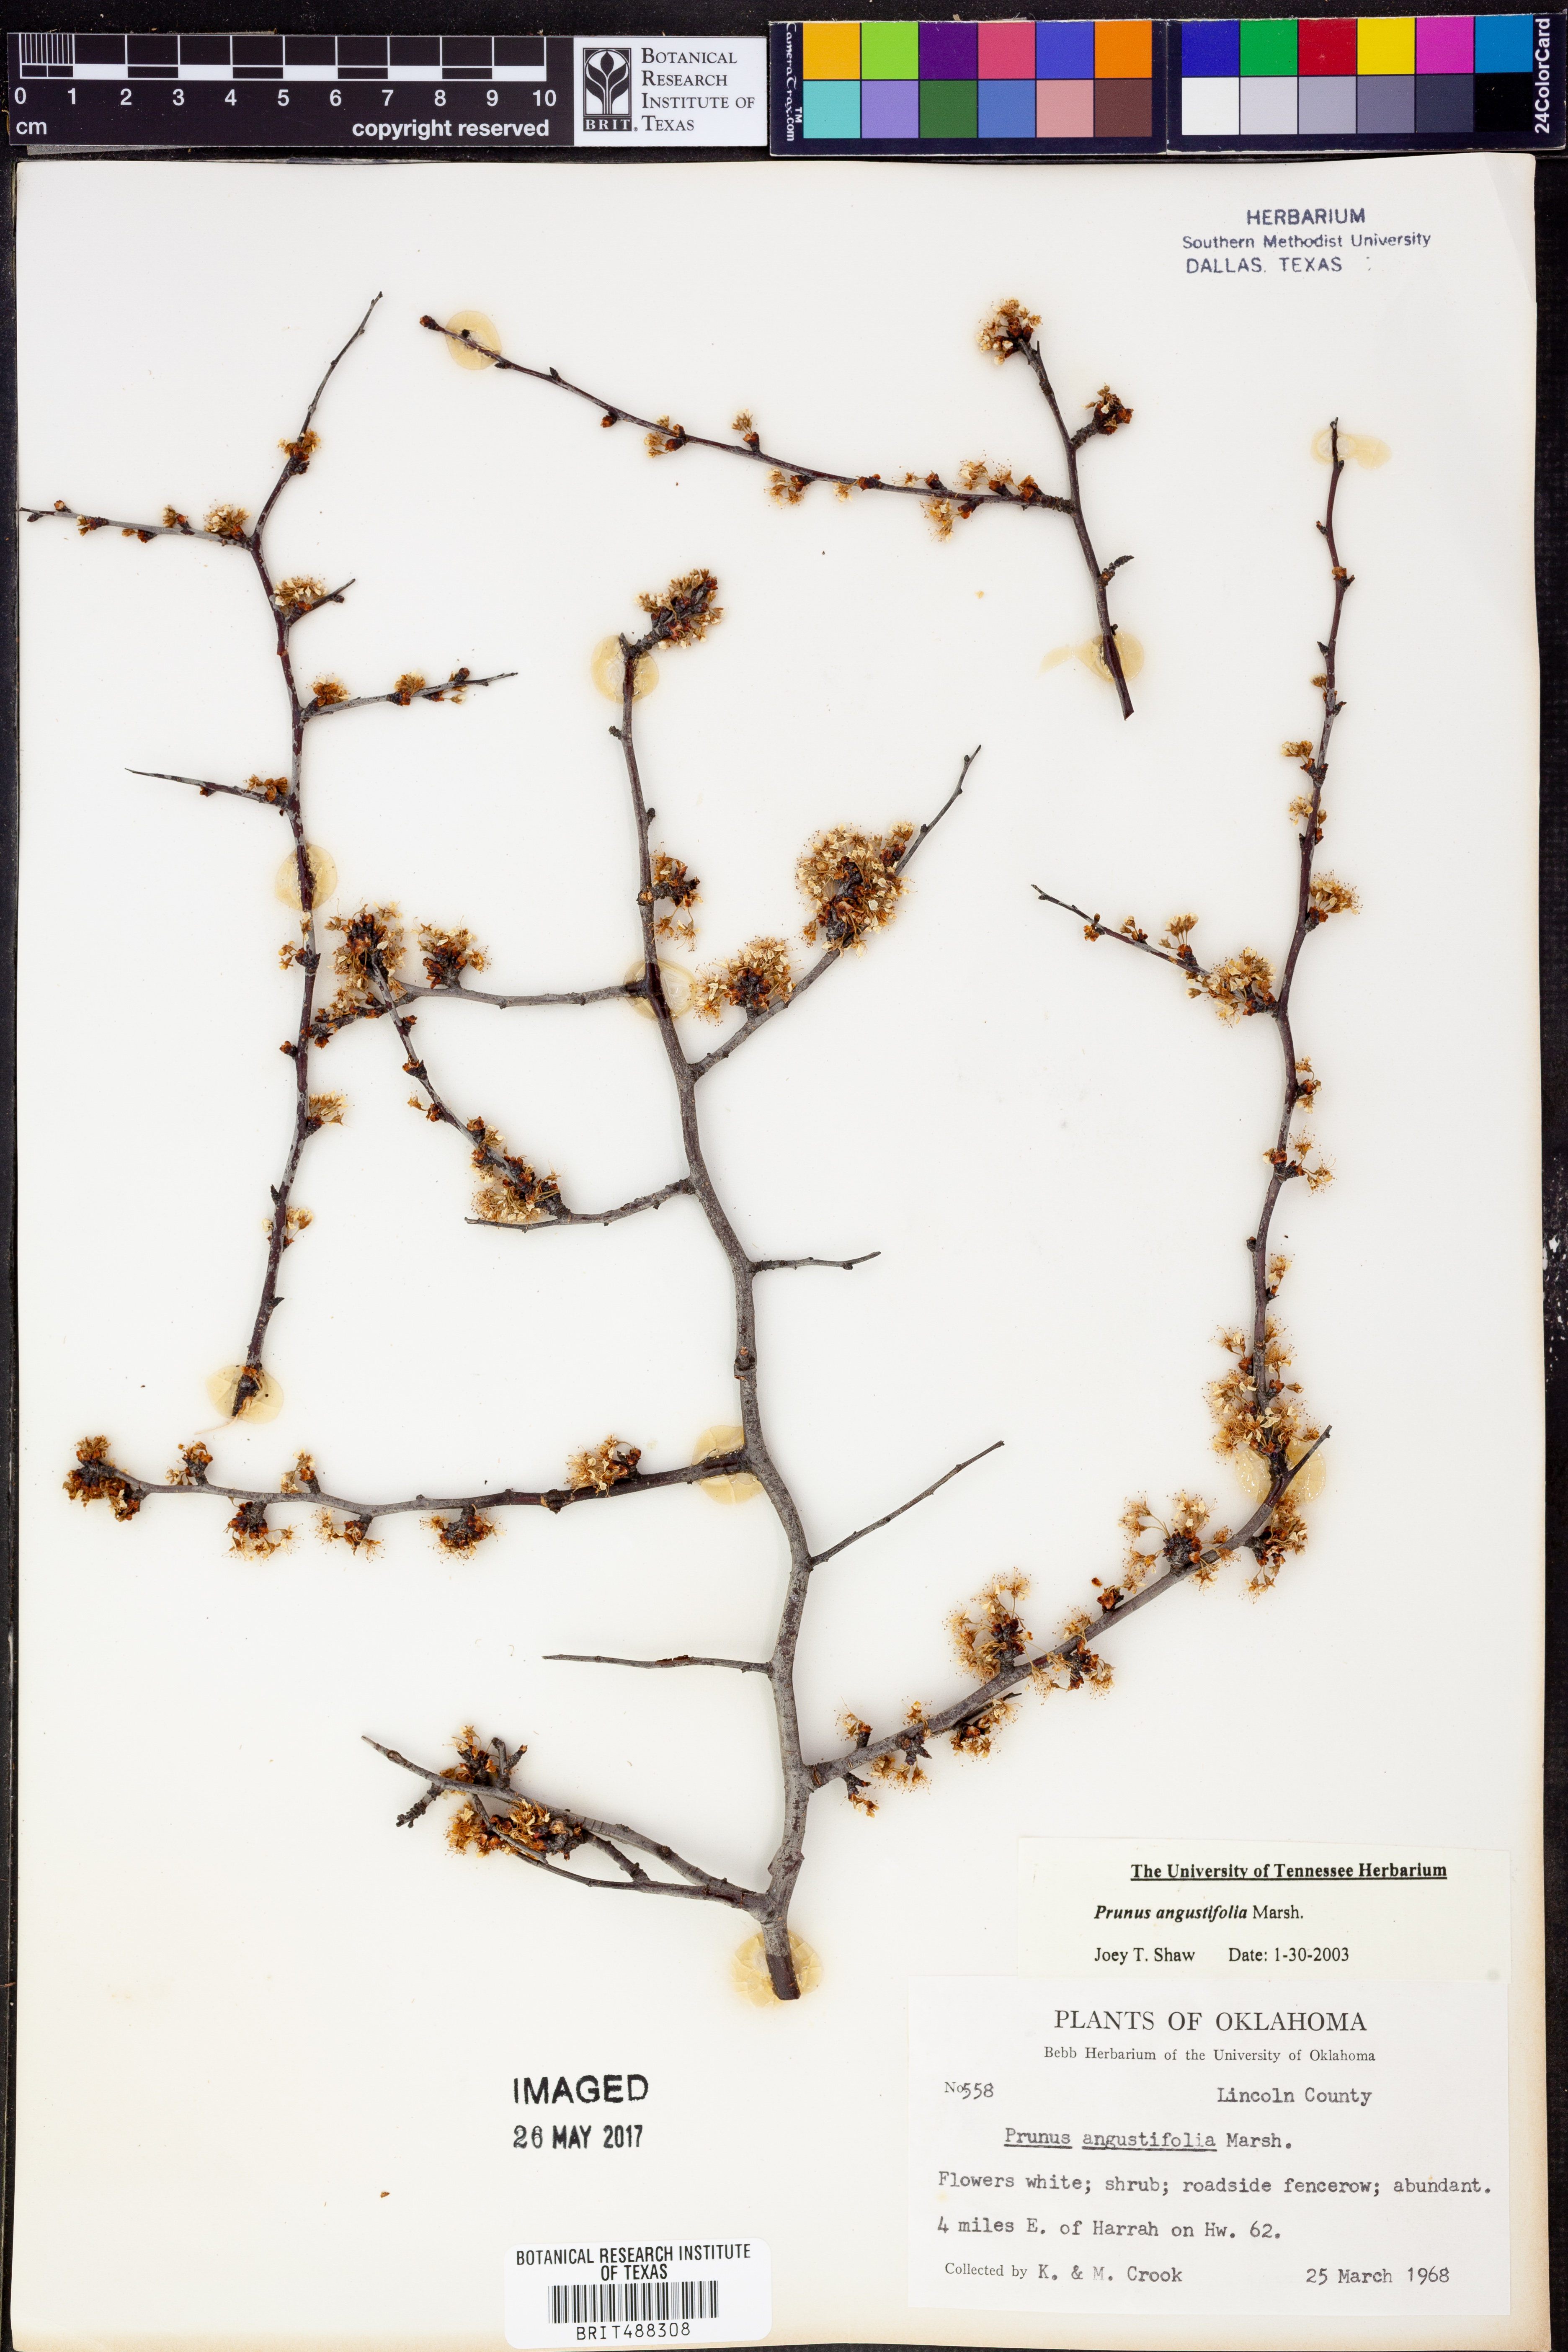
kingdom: Plantae
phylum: Tracheophyta
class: Magnoliopsida
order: Rosales
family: Rosaceae
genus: Prunus
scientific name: Prunus angustifolia
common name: Cherokee plum
